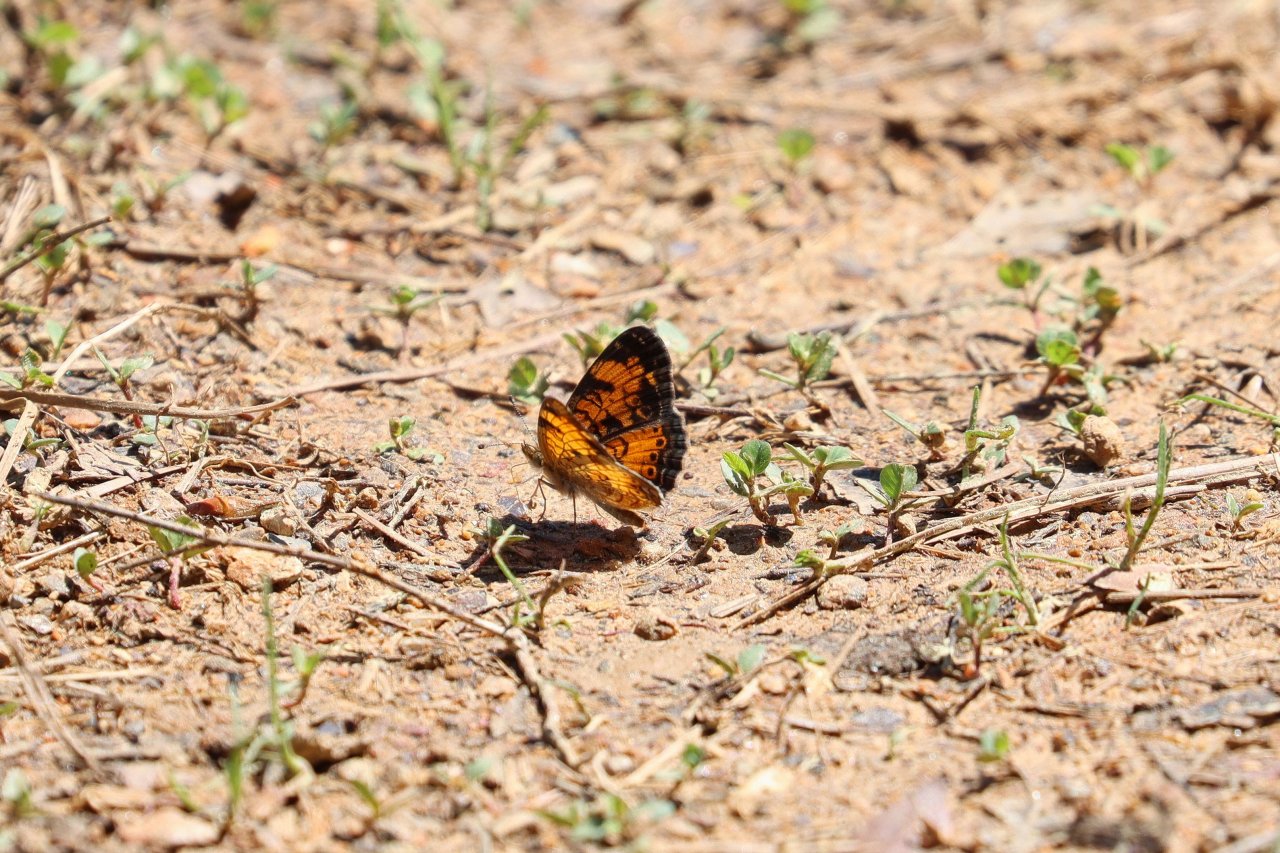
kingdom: Animalia
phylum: Arthropoda
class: Insecta
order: Lepidoptera
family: Nymphalidae
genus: Phyciodes
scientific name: Phyciodes tharos
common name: Pearl Crescent
